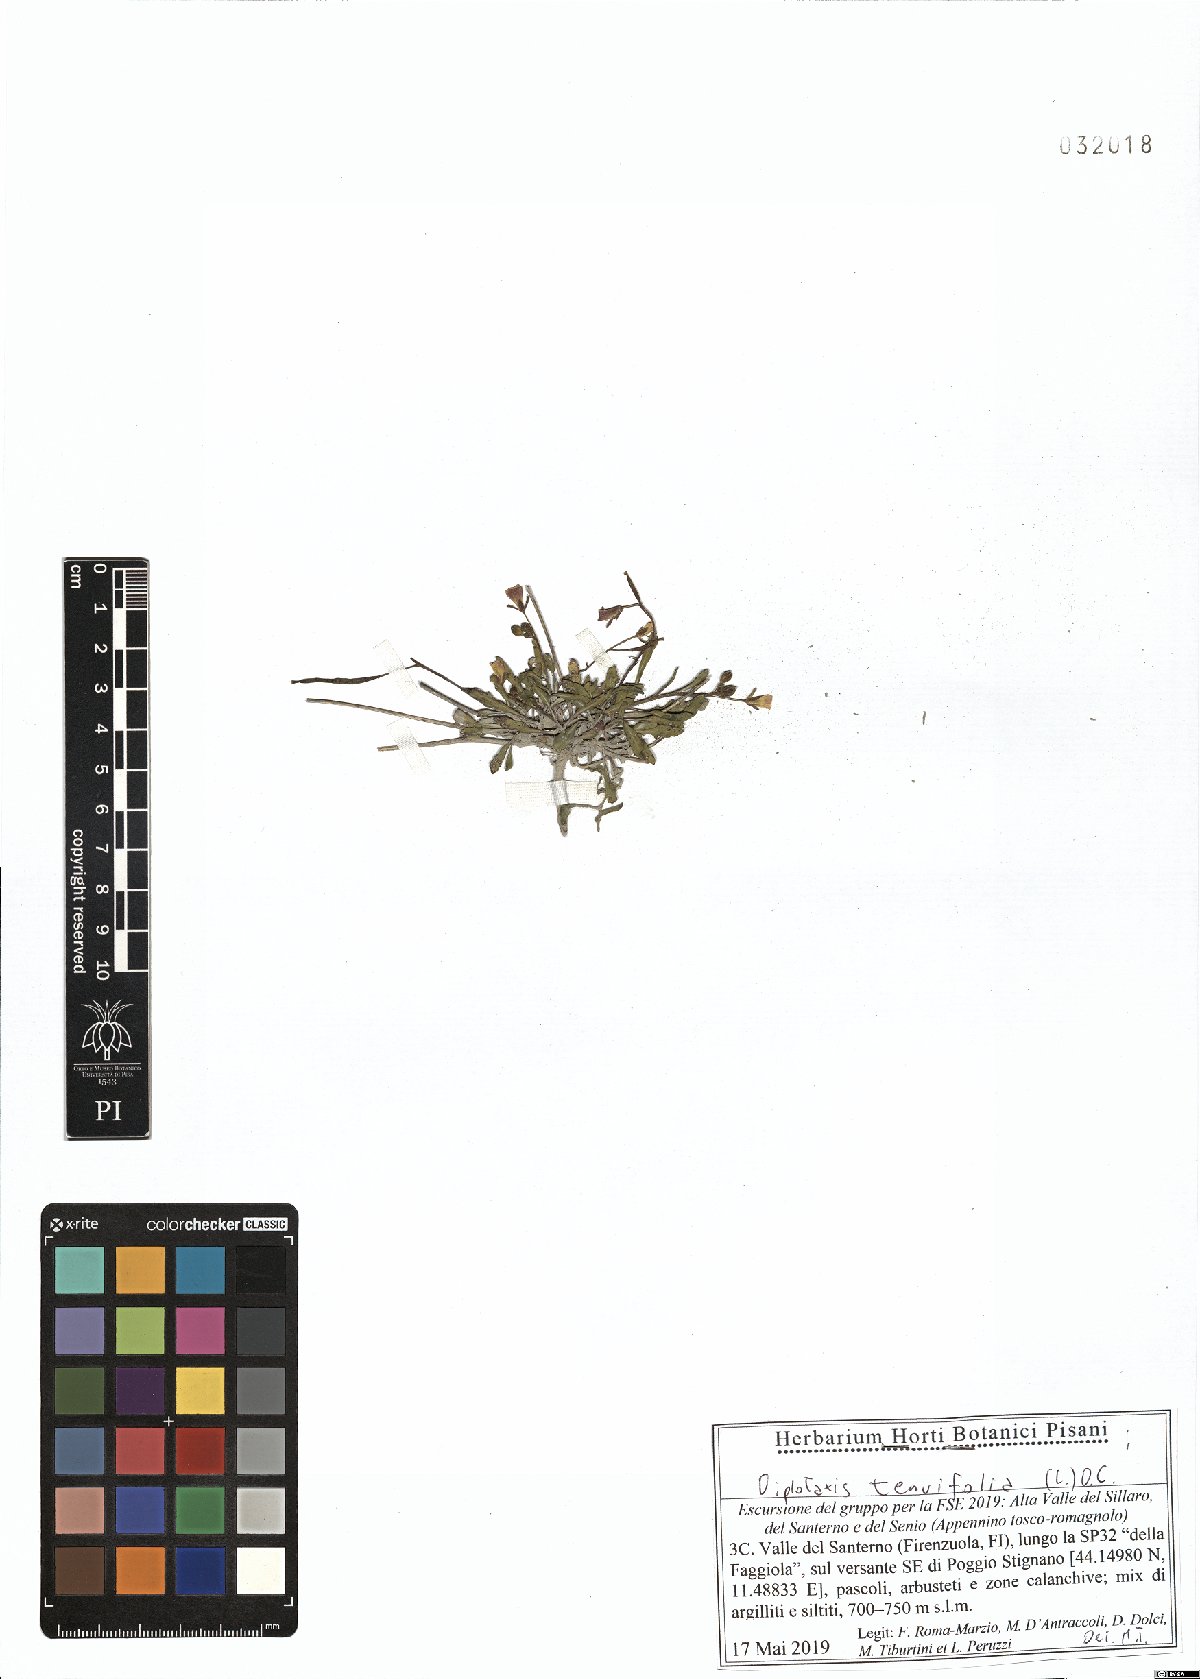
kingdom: Plantae
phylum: Tracheophyta
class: Magnoliopsida
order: Brassicales
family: Brassicaceae
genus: Diplotaxis
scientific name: Diplotaxis tenuifolia
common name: Perennial wall-rocket
